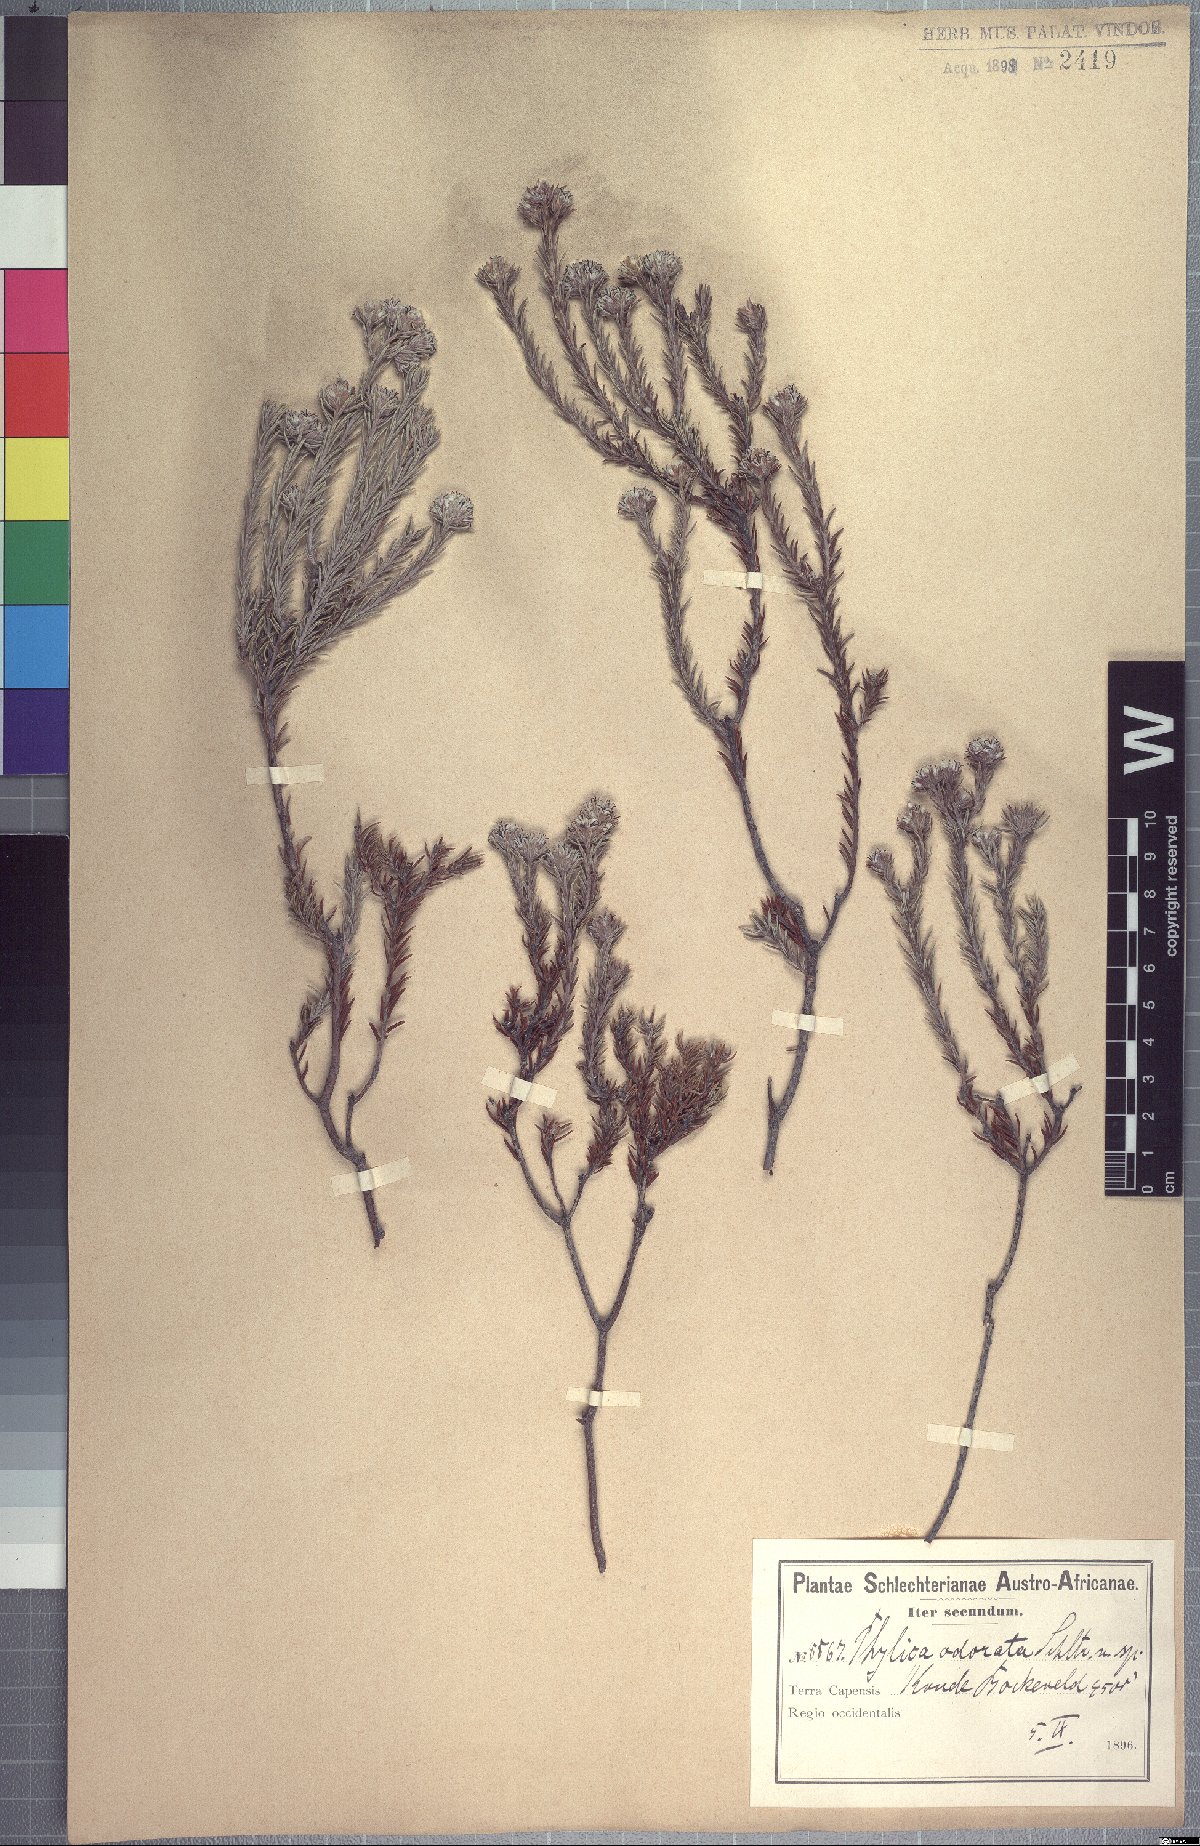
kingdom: Plantae
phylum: Tracheophyta
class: Magnoliopsida
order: Rosales
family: Rhamnaceae
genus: Phylica
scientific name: Phylica odorata
